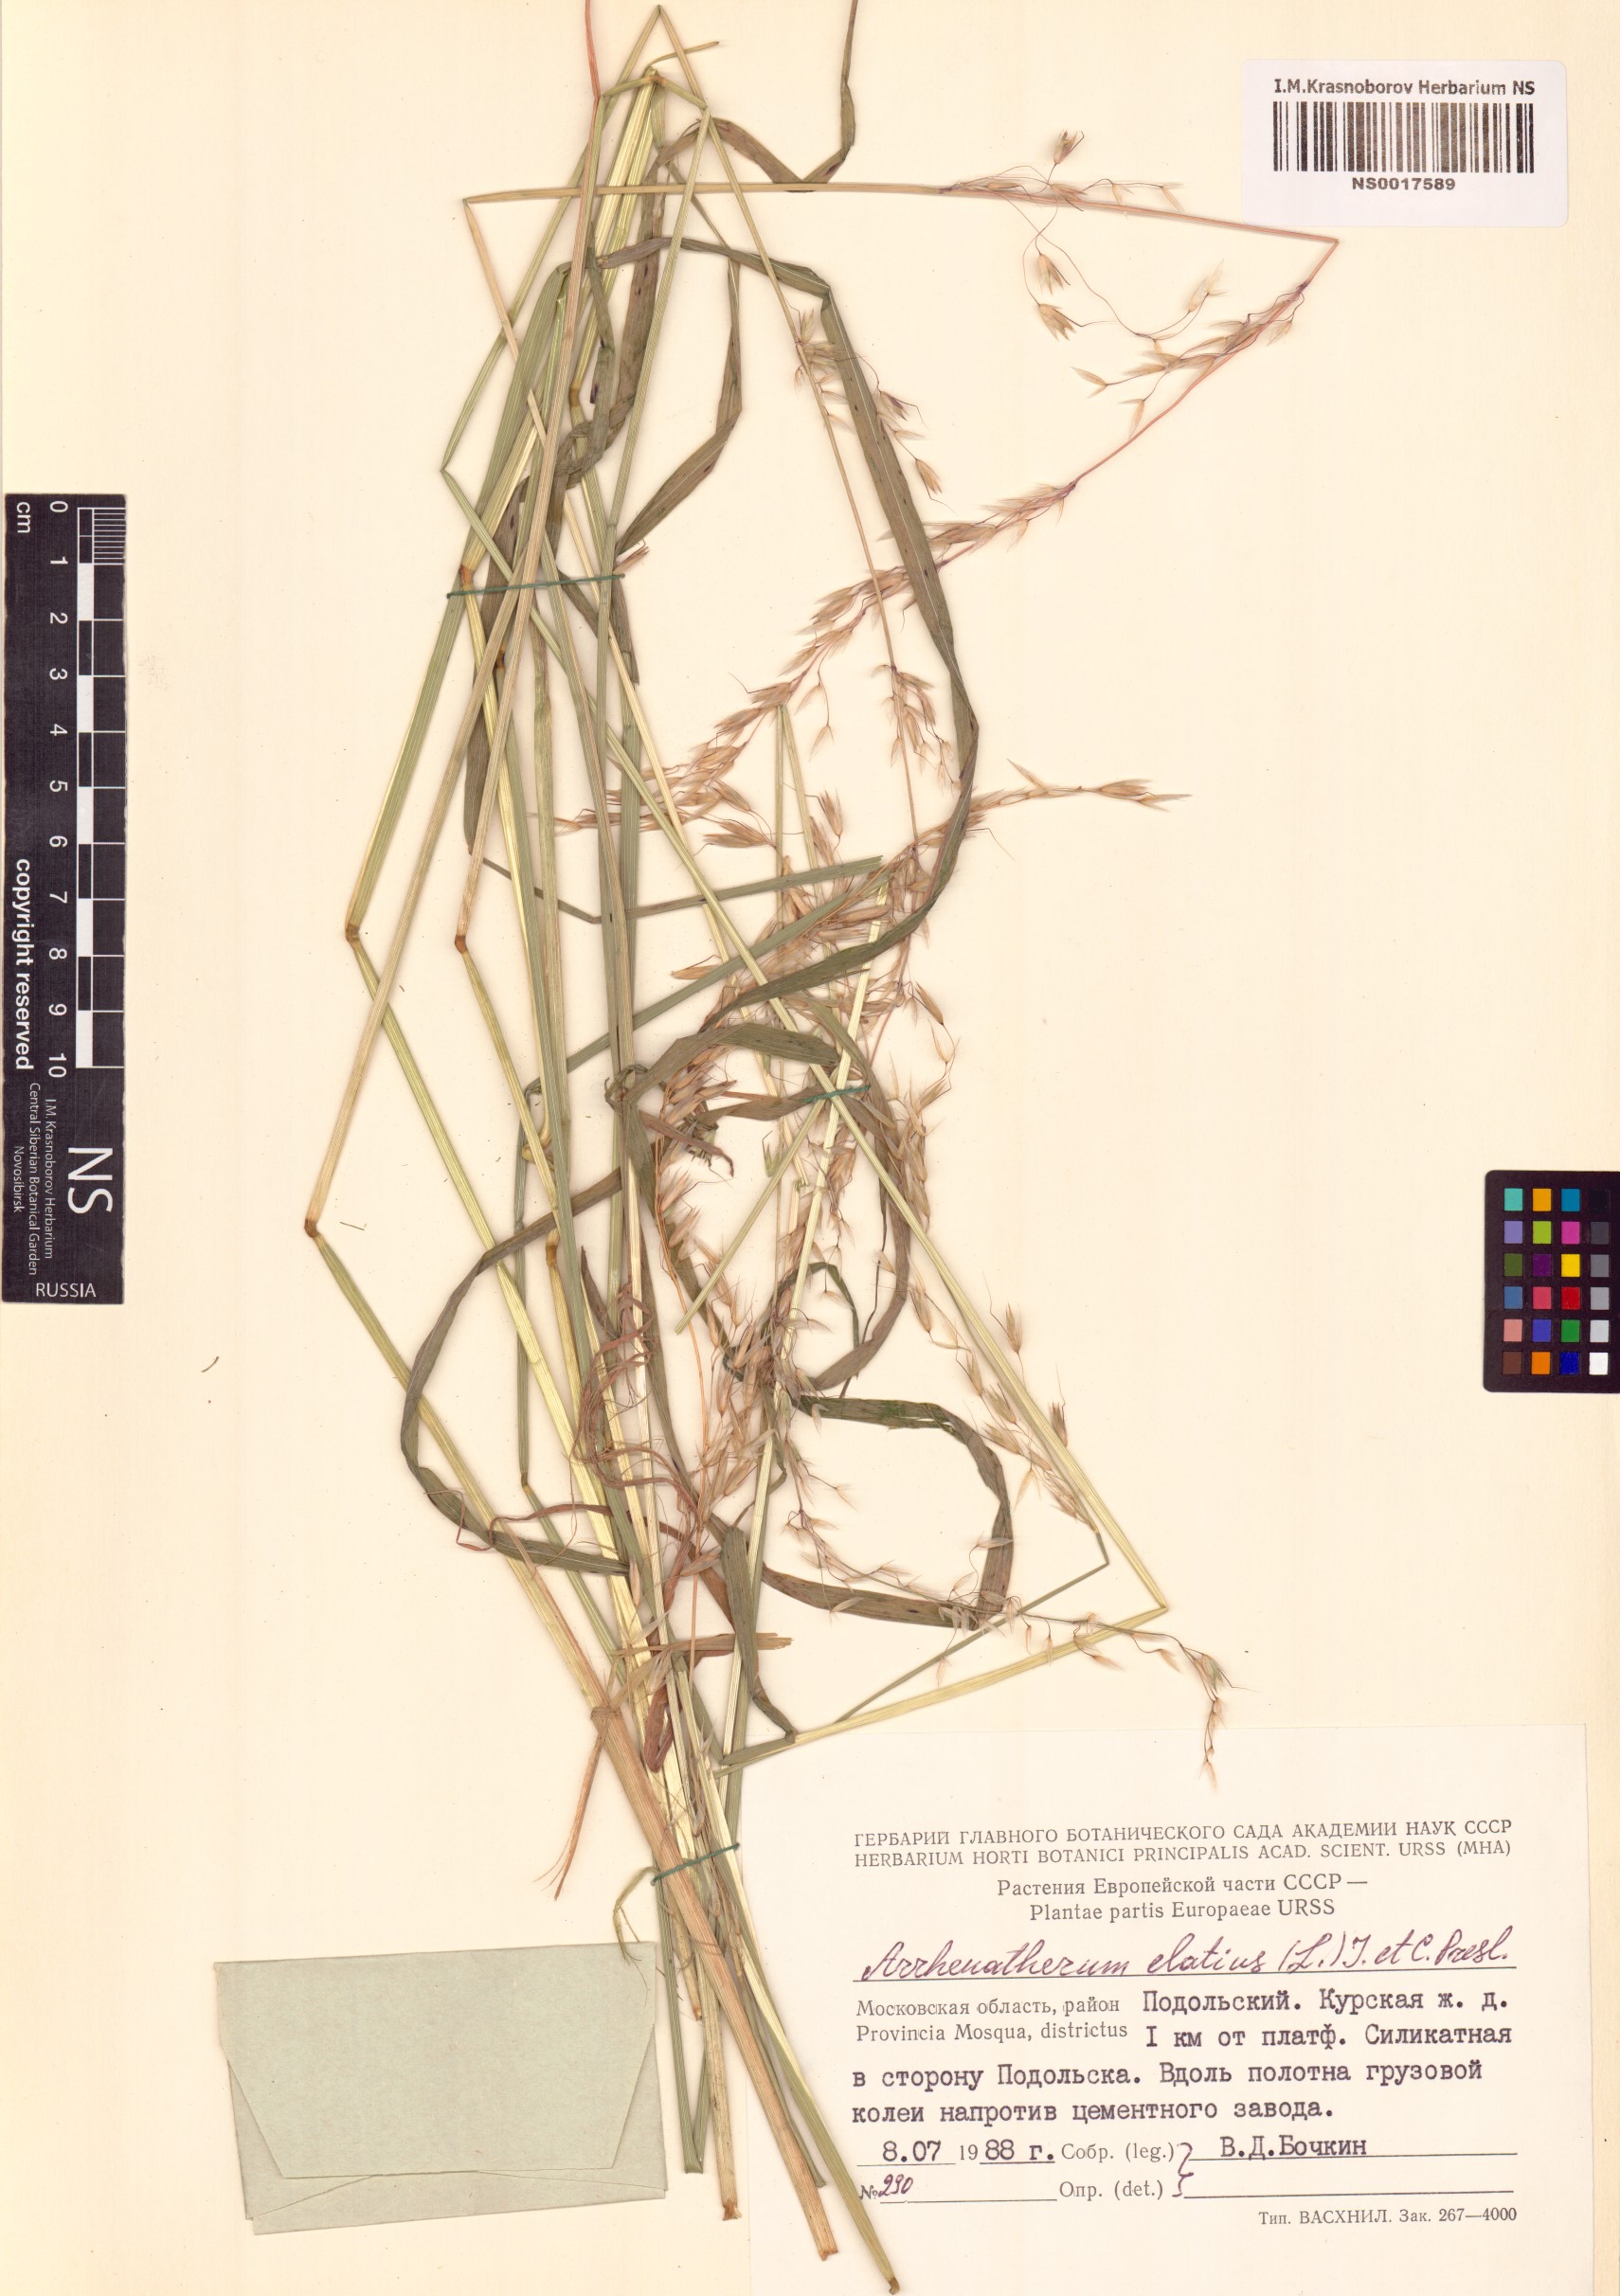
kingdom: Plantae
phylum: Tracheophyta
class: Liliopsida
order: Poales
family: Poaceae
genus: Arrhenatherum
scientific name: Arrhenatherum elatius
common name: Tall oatgrass
